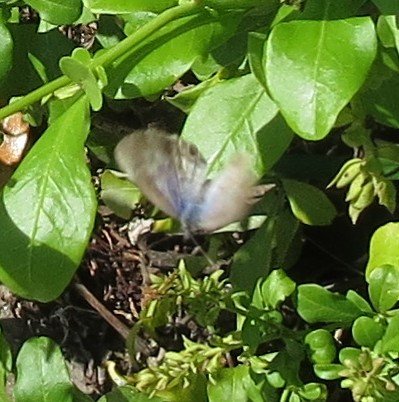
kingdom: Animalia
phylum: Arthropoda
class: Insecta
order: Lepidoptera
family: Lycaenidae
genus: Leptotes
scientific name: Leptotes cassius
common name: Cassius Blue
